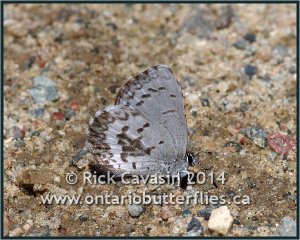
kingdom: Animalia
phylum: Arthropoda
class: Insecta
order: Lepidoptera
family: Lycaenidae
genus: Celastrina
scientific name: Celastrina lucia
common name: Northern Spring Azure
